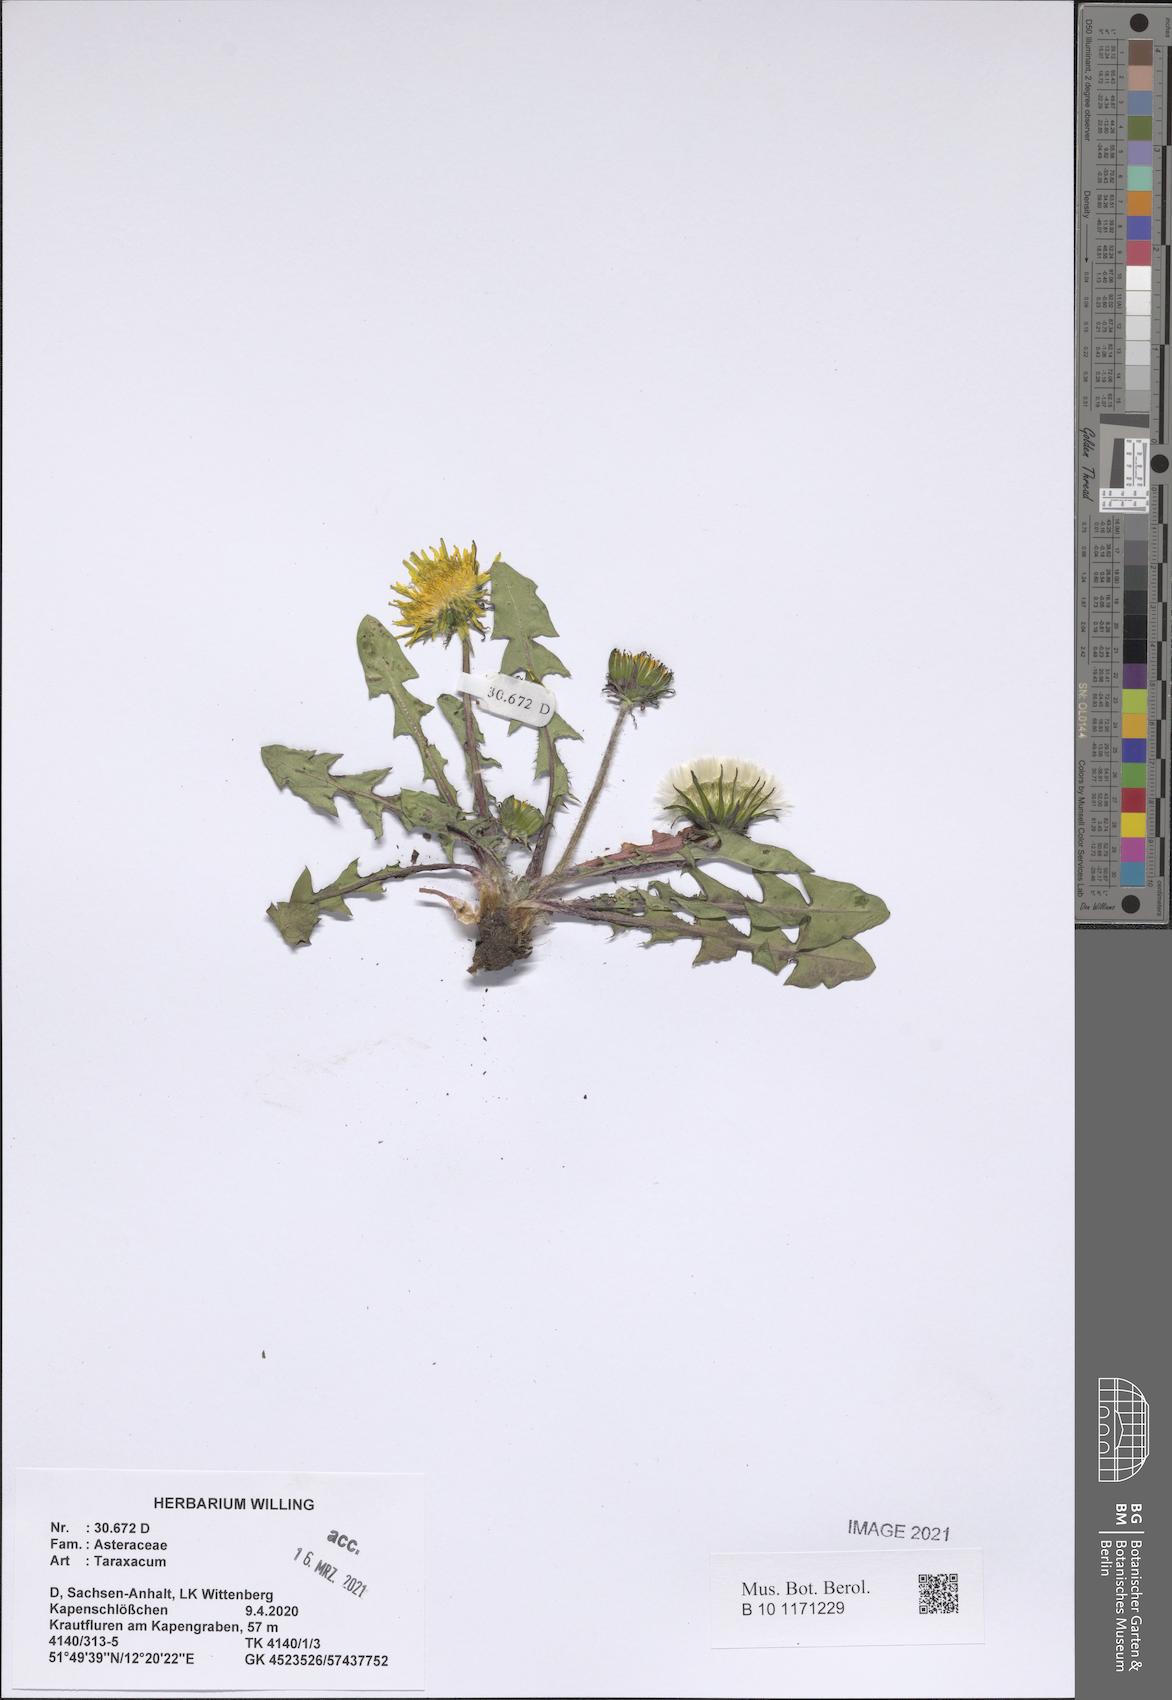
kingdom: Plantae
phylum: Tracheophyta
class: Magnoliopsida
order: Asterales
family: Asteraceae
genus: Taraxacum
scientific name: Taraxacum
